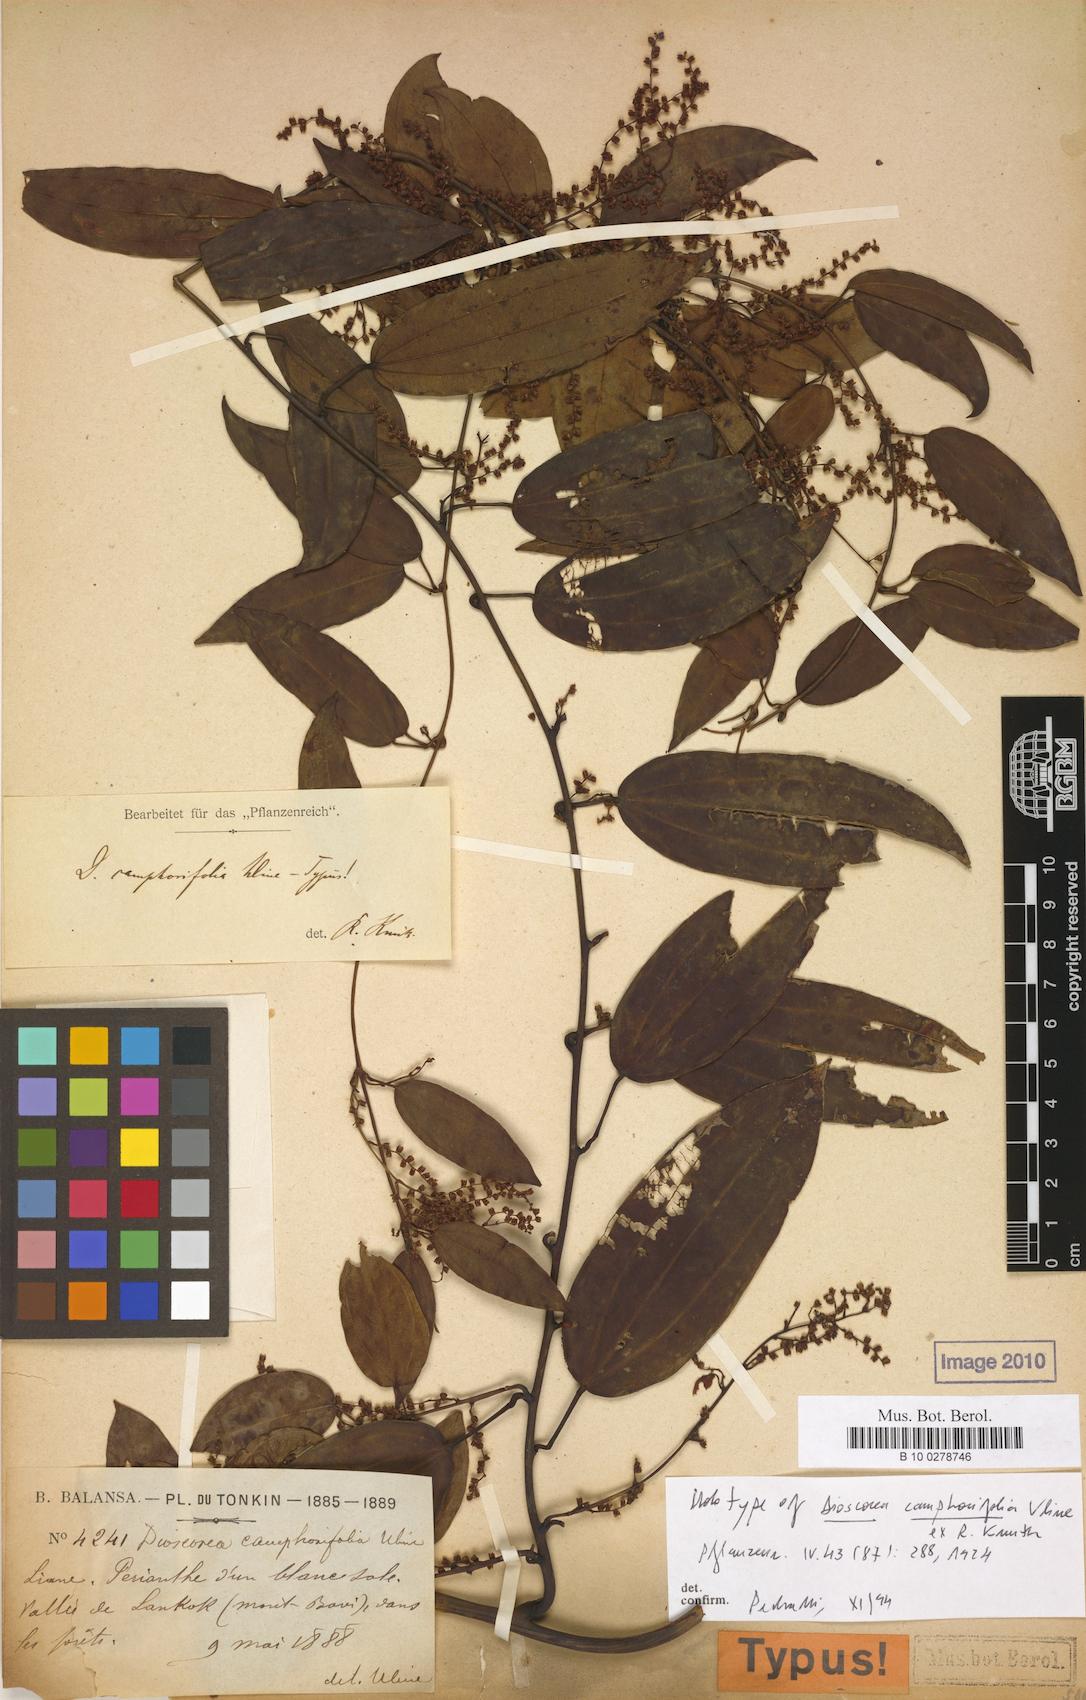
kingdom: Plantae
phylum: Tracheophyta
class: Liliopsida
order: Dioscoreales
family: Dioscoreaceae
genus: Dioscorea
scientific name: Dioscorea cirrhosa
